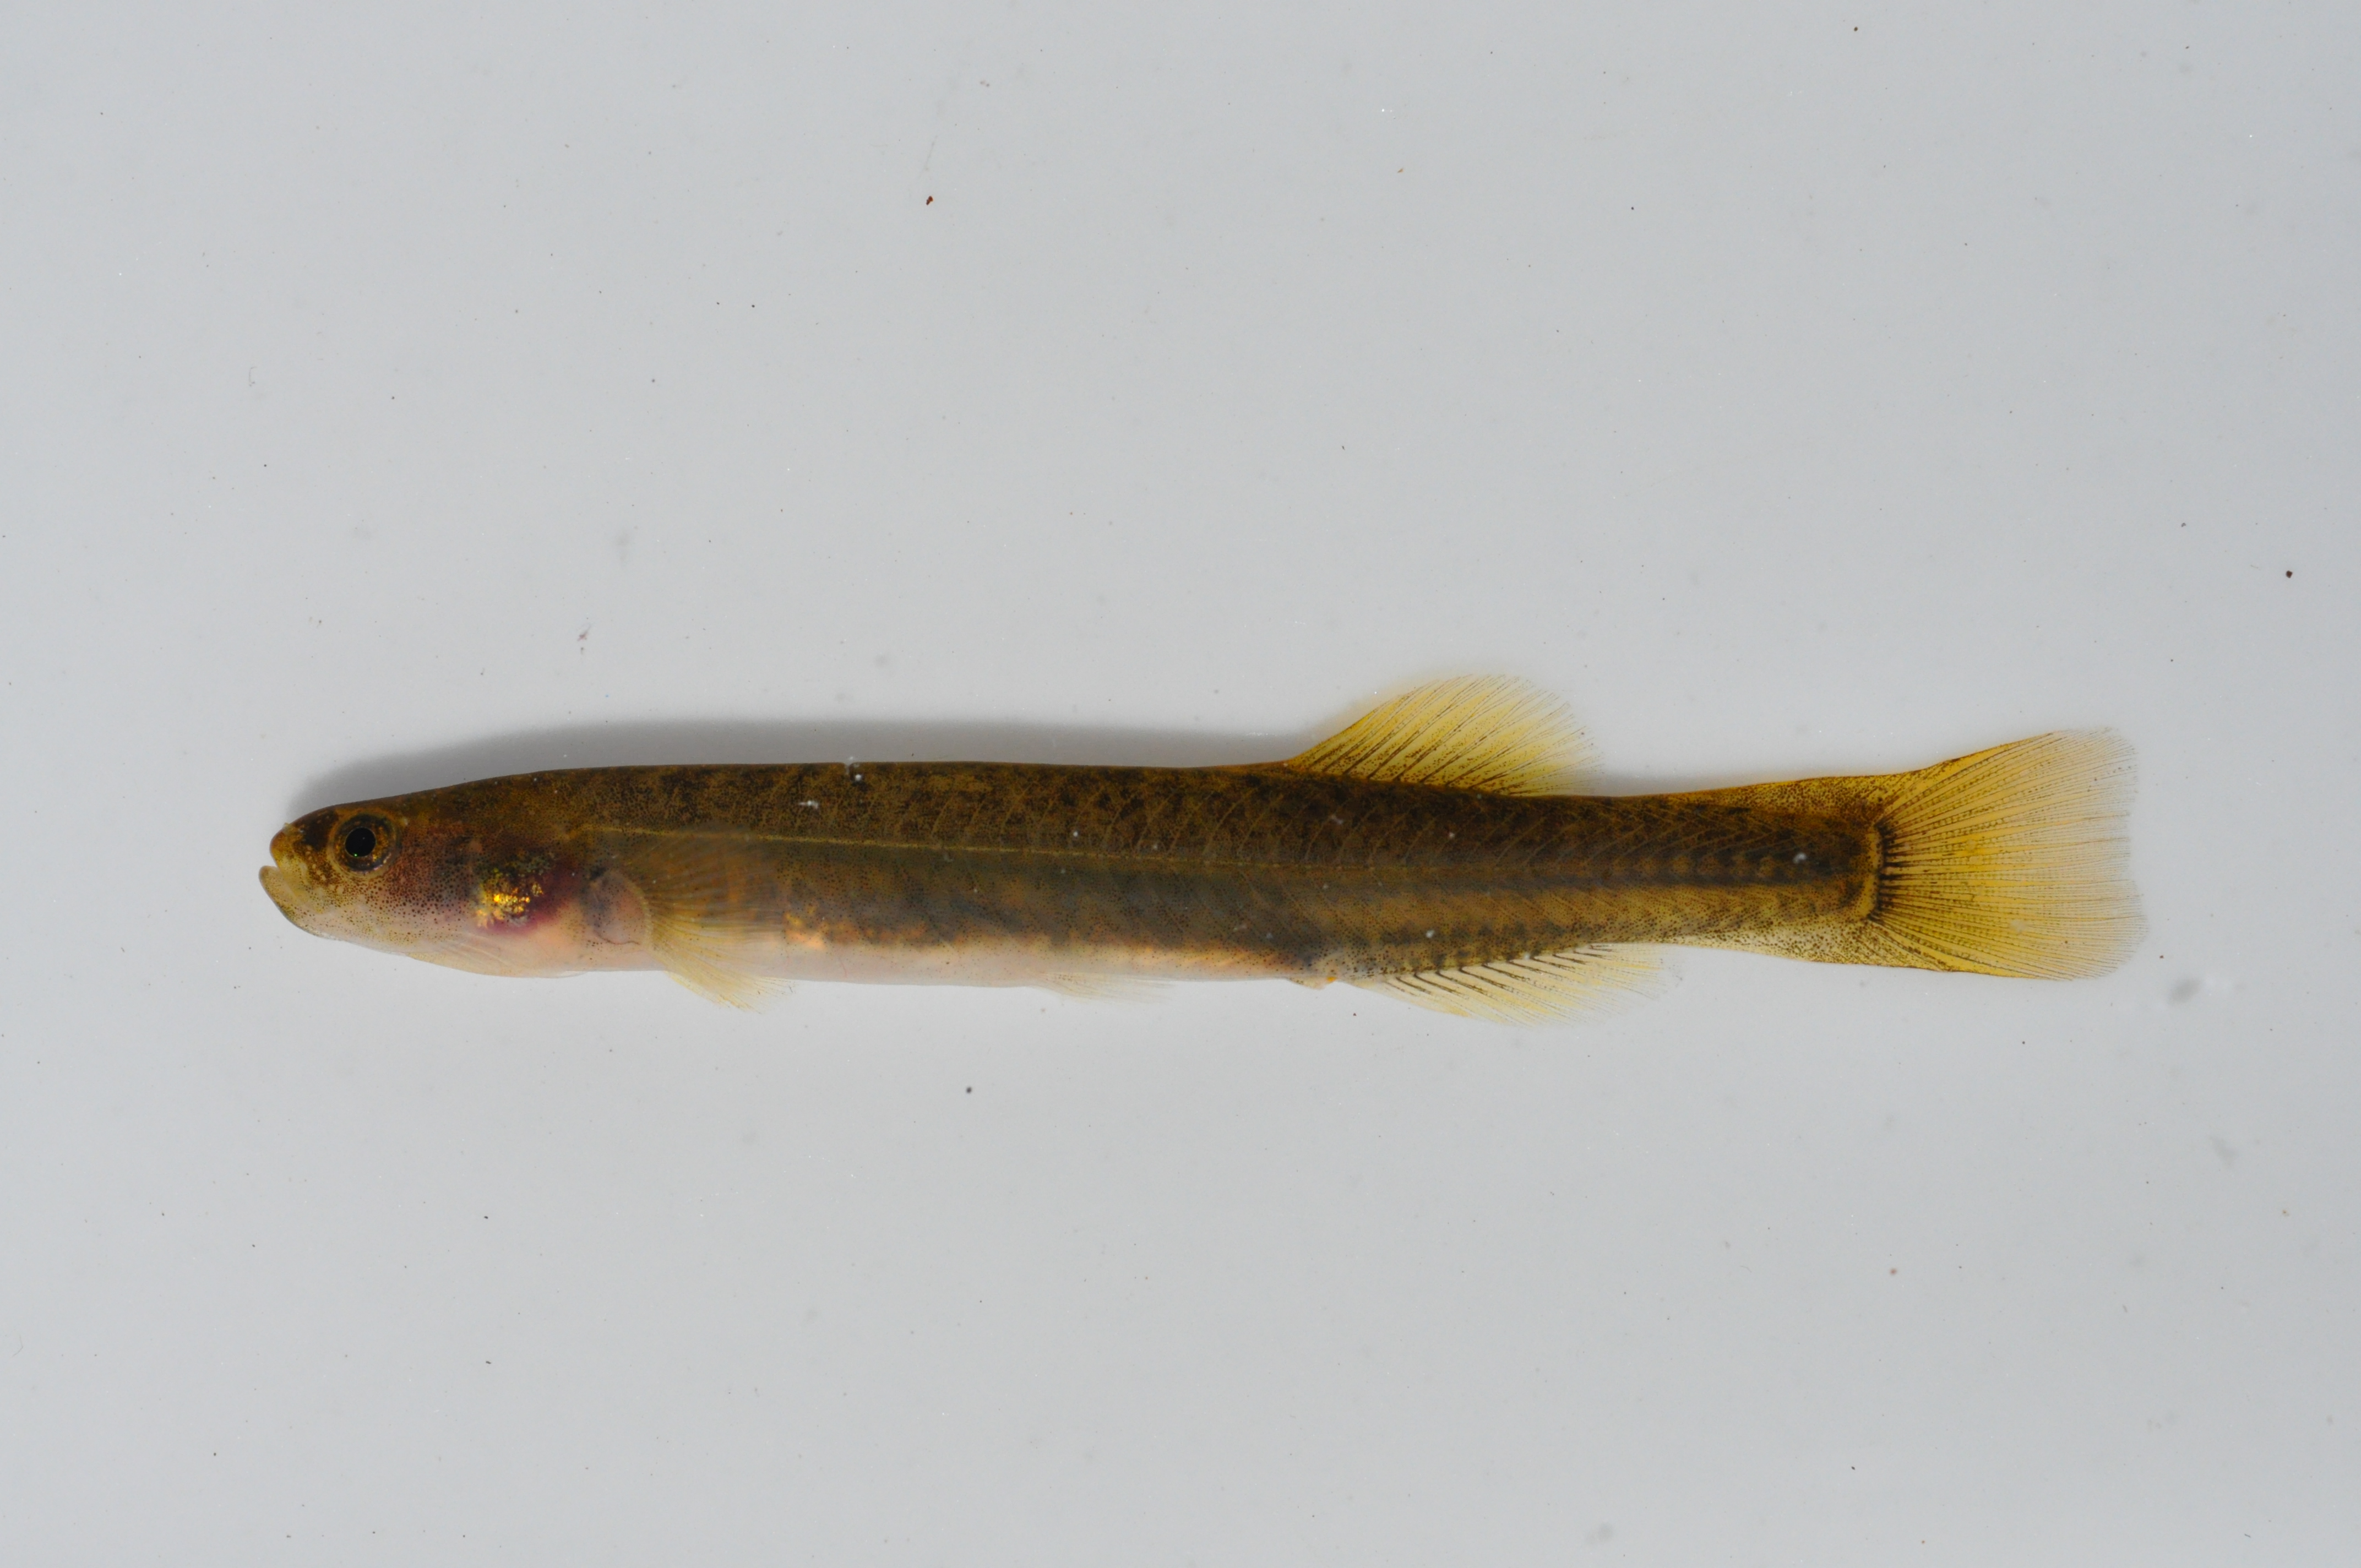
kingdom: Animalia
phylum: Chordata
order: Osmeriformes
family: Galaxiidae
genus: Galaxias
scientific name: Galaxias zebratus
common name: Cape galaxias
